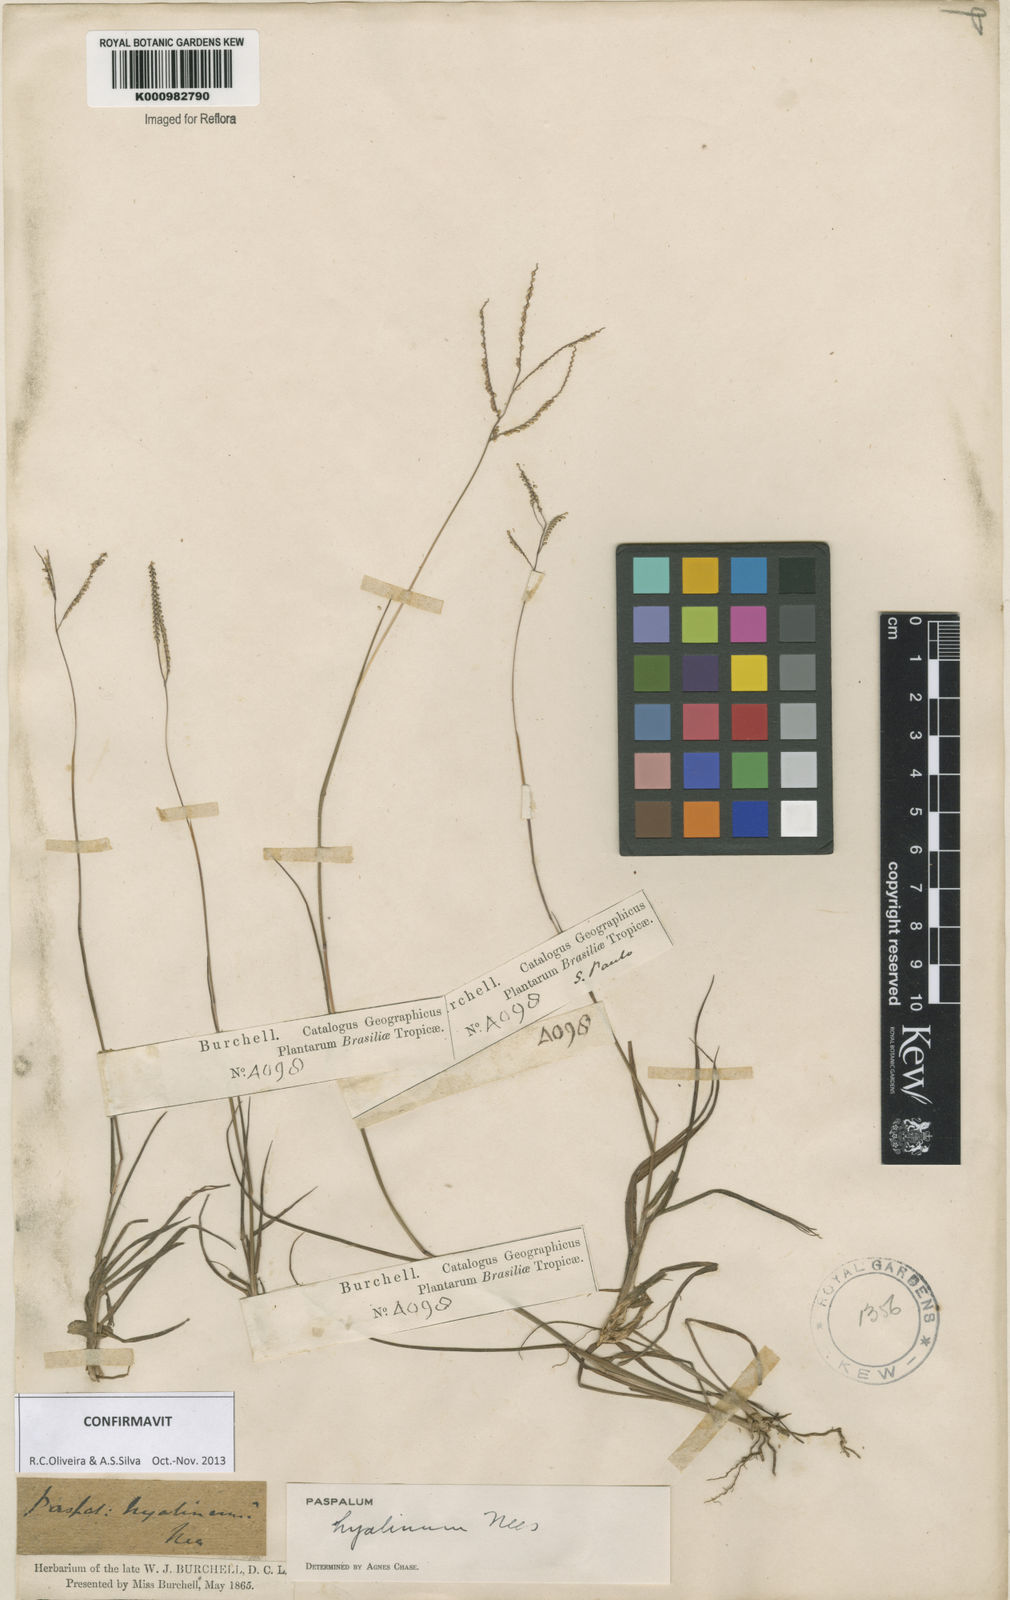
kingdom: Plantae
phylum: Tracheophyta
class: Liliopsida
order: Poales
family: Poaceae
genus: Paspalum
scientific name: Paspalum hyalinum
